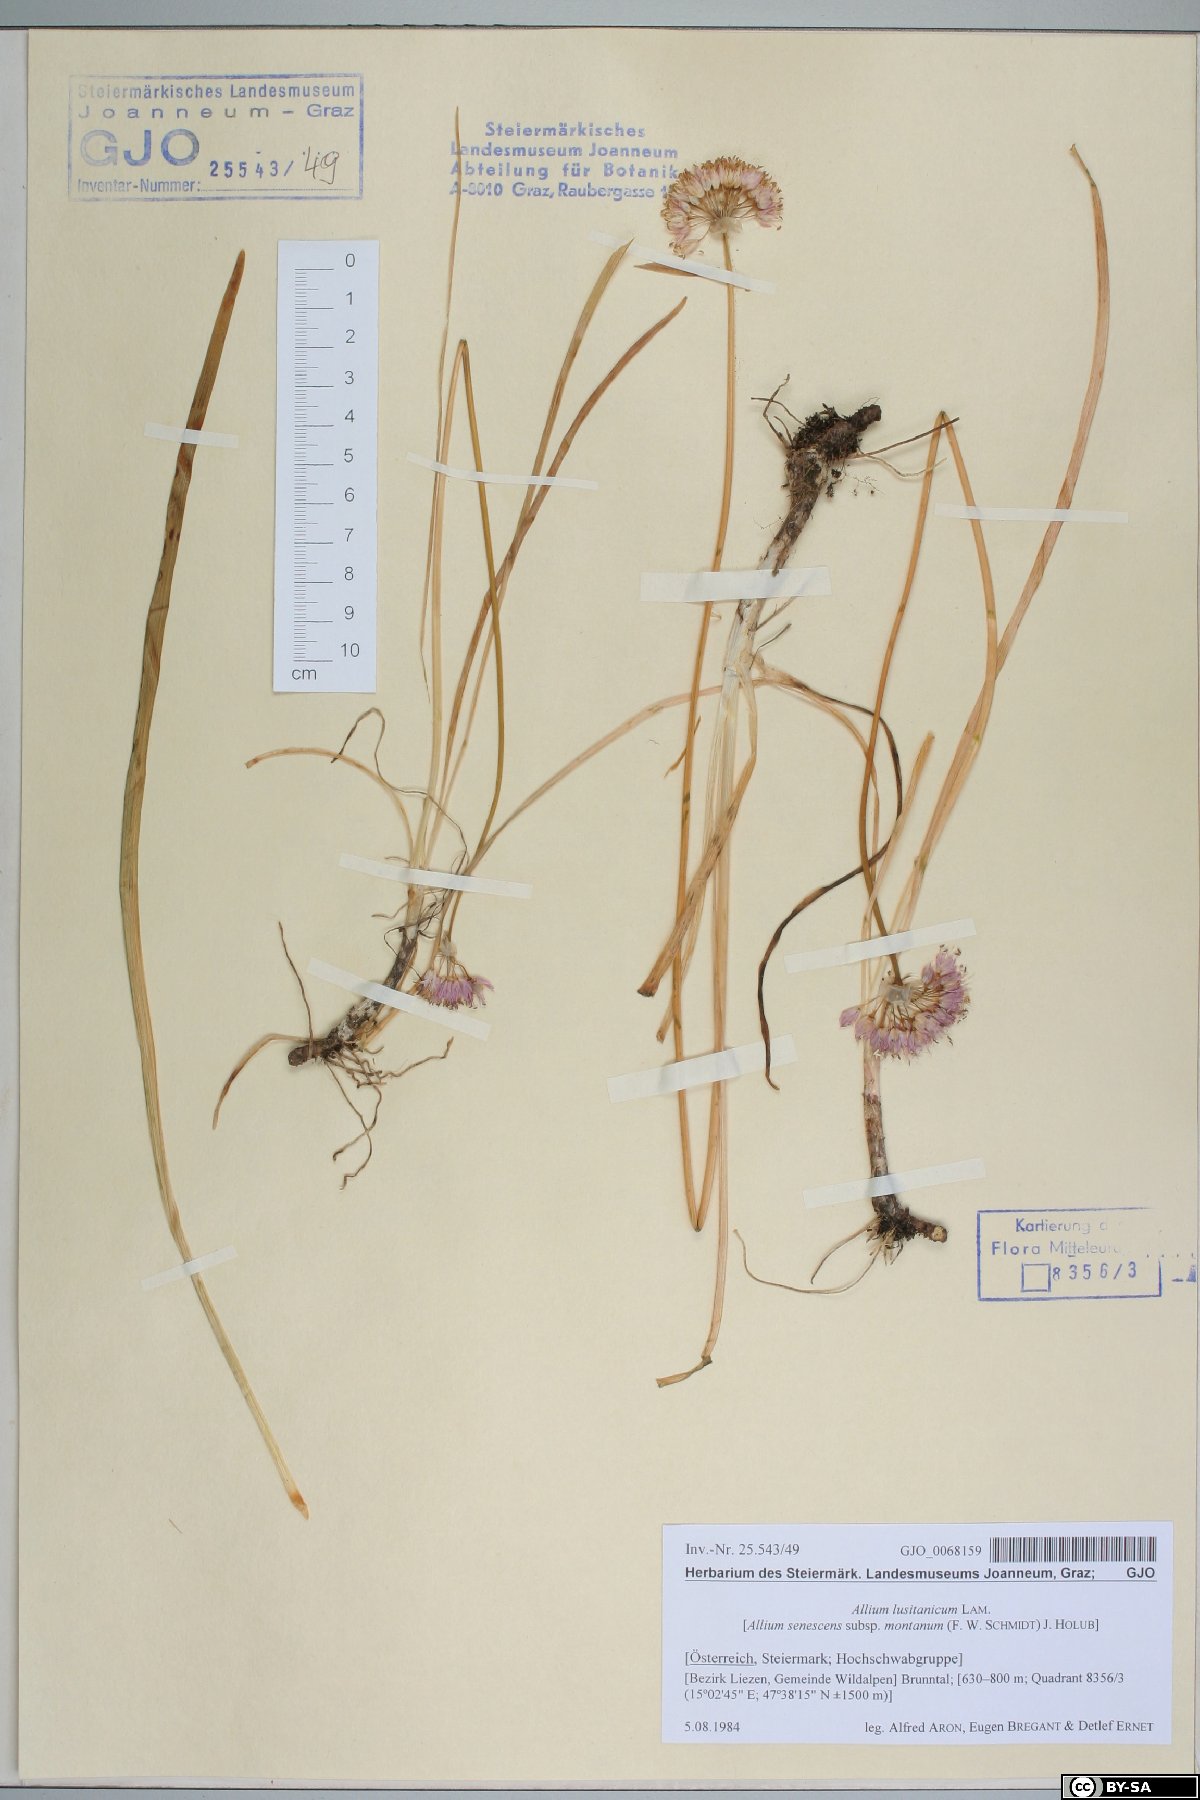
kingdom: Plantae
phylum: Tracheophyta
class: Liliopsida
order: Asparagales
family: Amaryllidaceae
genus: Allium
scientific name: Allium lusitanicum
